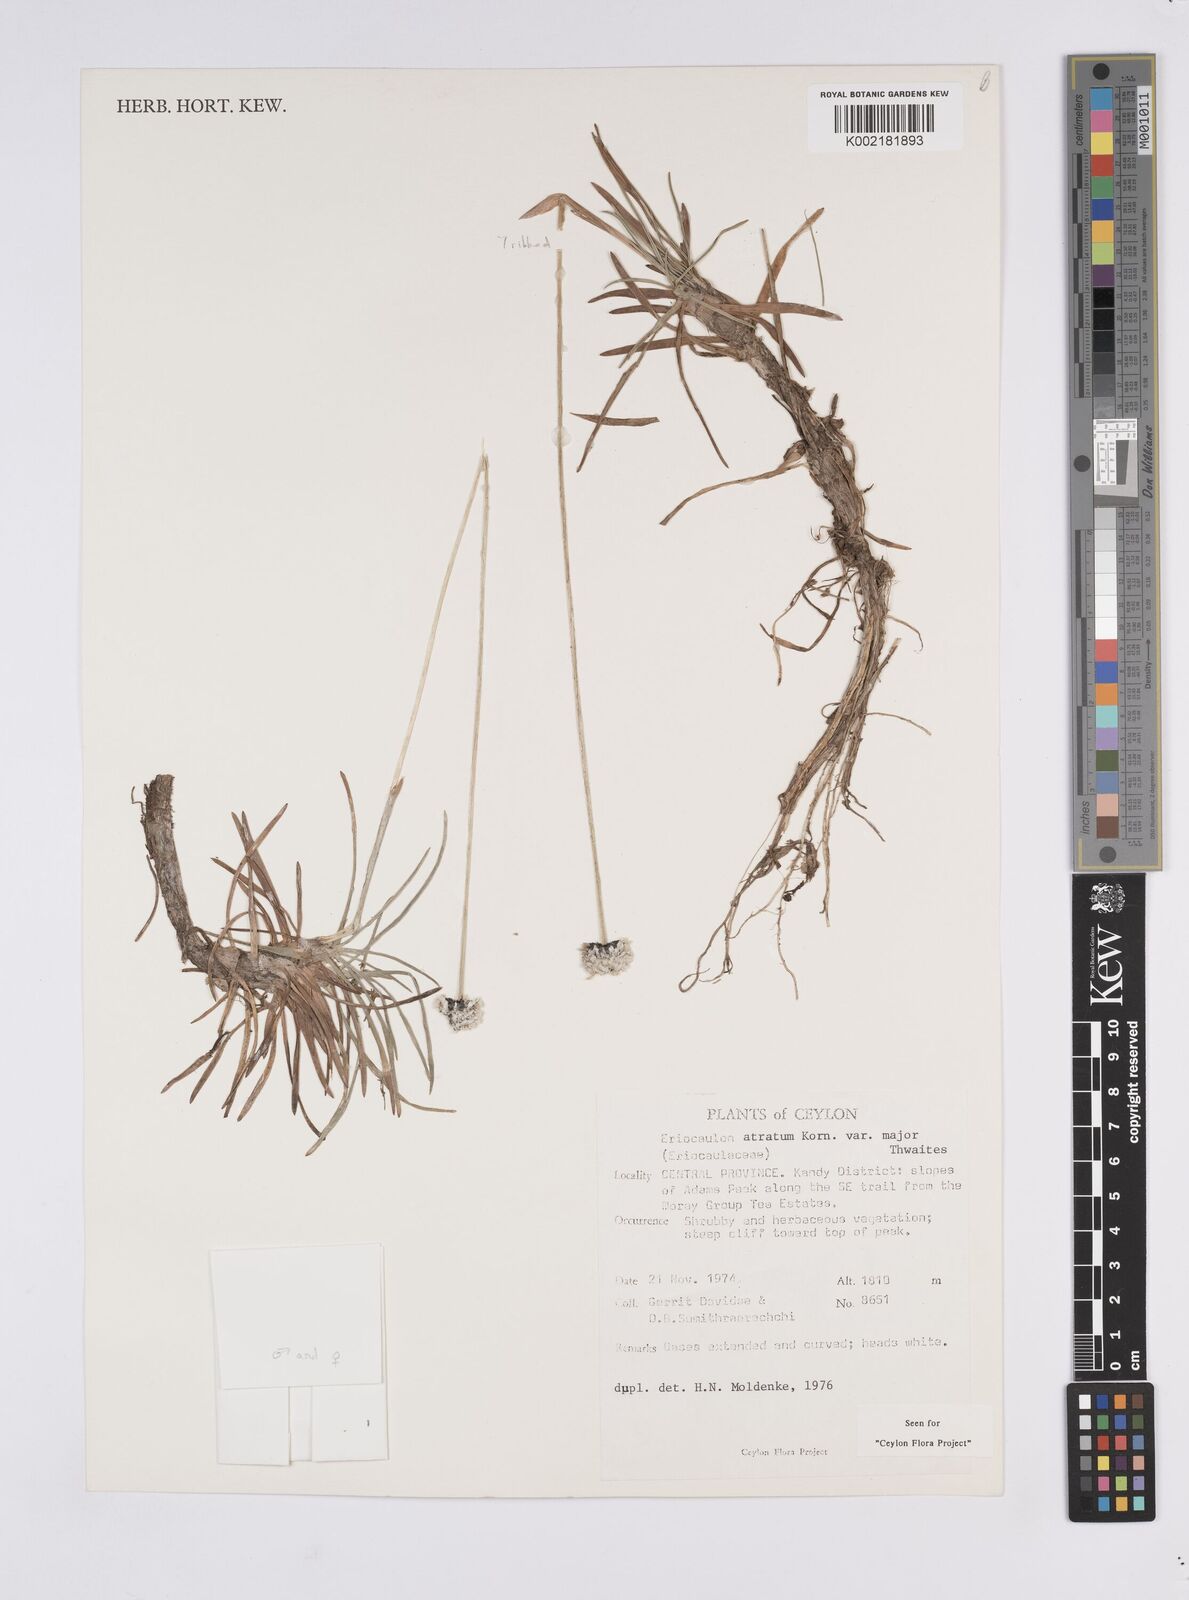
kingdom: Plantae
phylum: Tracheophyta
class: Liliopsida
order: Poales
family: Eriocaulaceae
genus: Eriocaulon
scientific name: Eriocaulon philippo-coburgii
